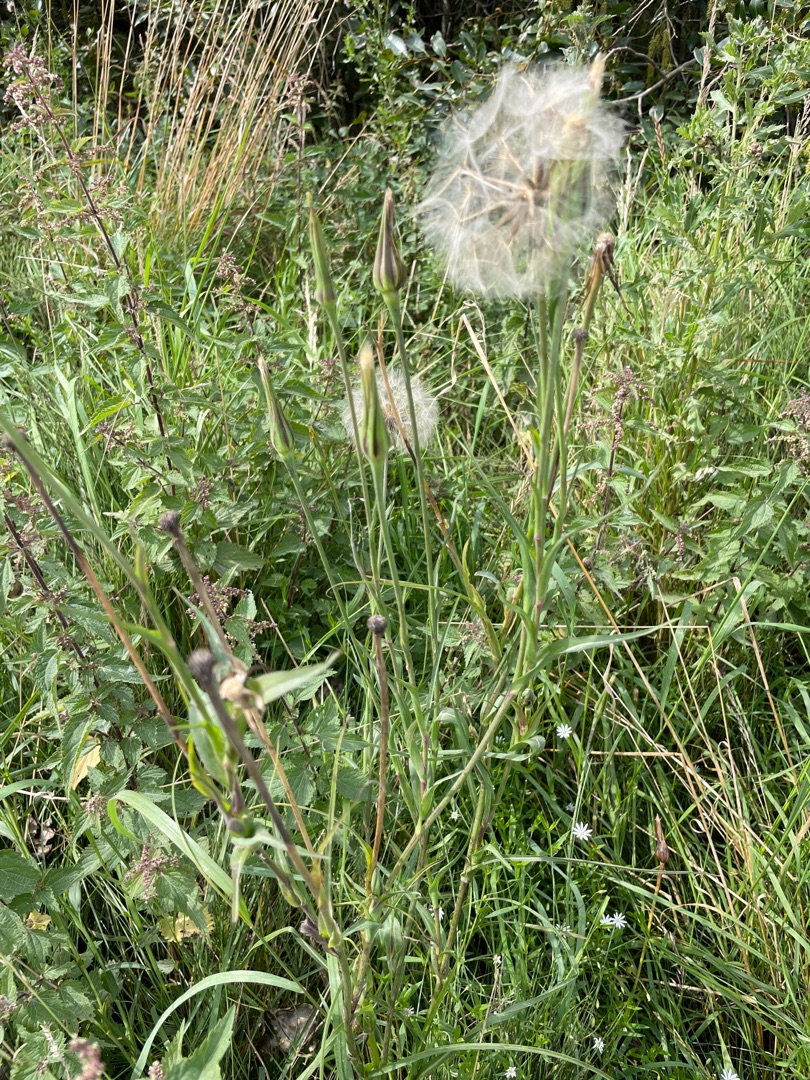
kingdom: Plantae
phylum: Tracheophyta
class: Magnoliopsida
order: Asterales
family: Asteraceae
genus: Tragopogon
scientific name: Tragopogon minor
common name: Småkronet gedeskæg
